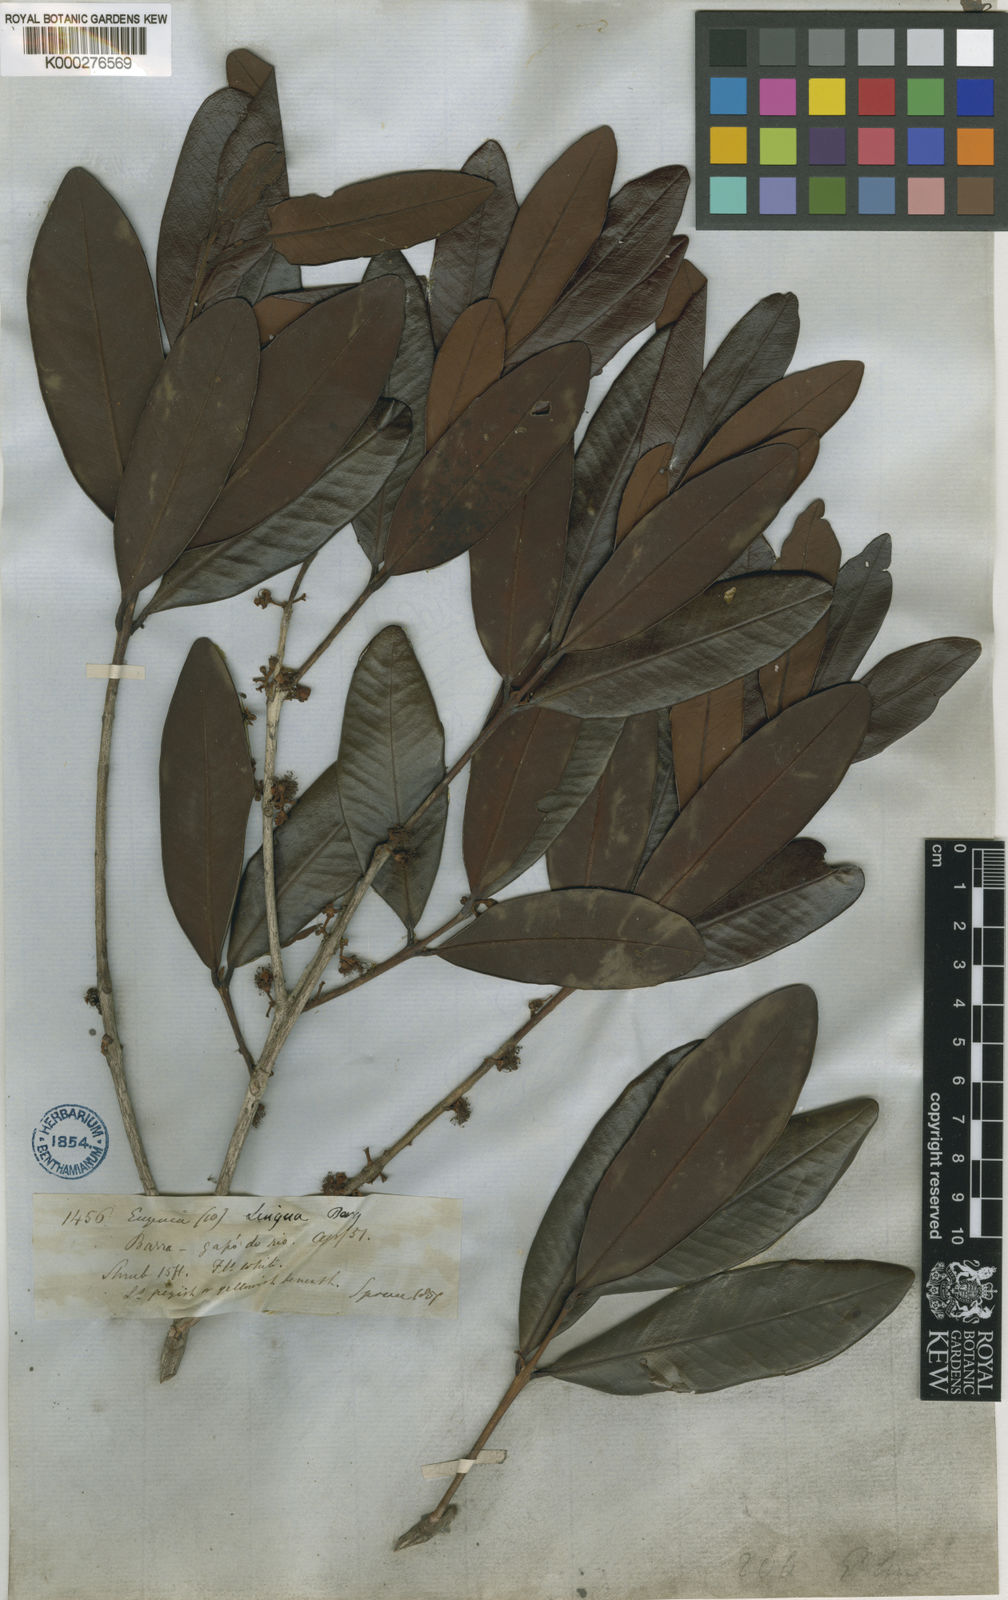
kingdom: Plantae
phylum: Tracheophyta
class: Magnoliopsida
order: Myrtales
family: Myrtaceae
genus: Eugenia
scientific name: Eugenia cachoeirensis
